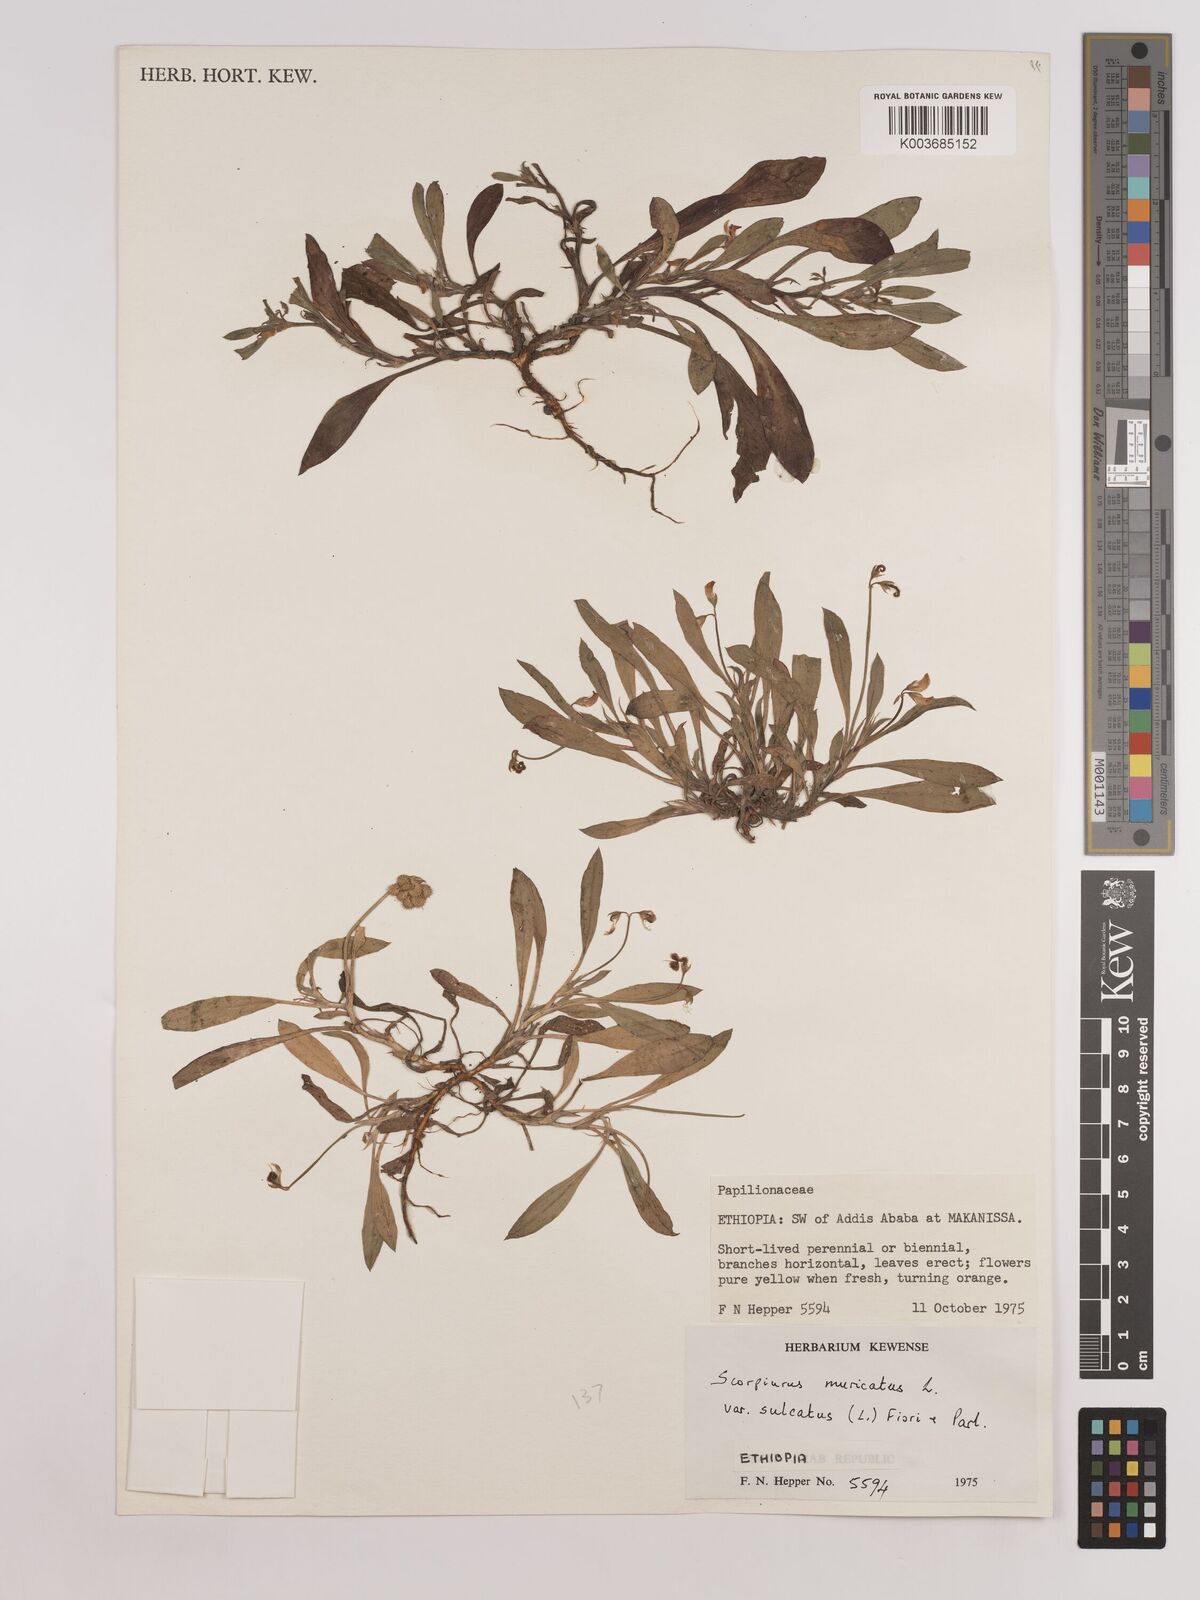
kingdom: Plantae
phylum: Tracheophyta
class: Magnoliopsida
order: Fabales
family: Fabaceae
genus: Scorpiurus
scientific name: Scorpiurus muricatus
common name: Caterpillar-plant
